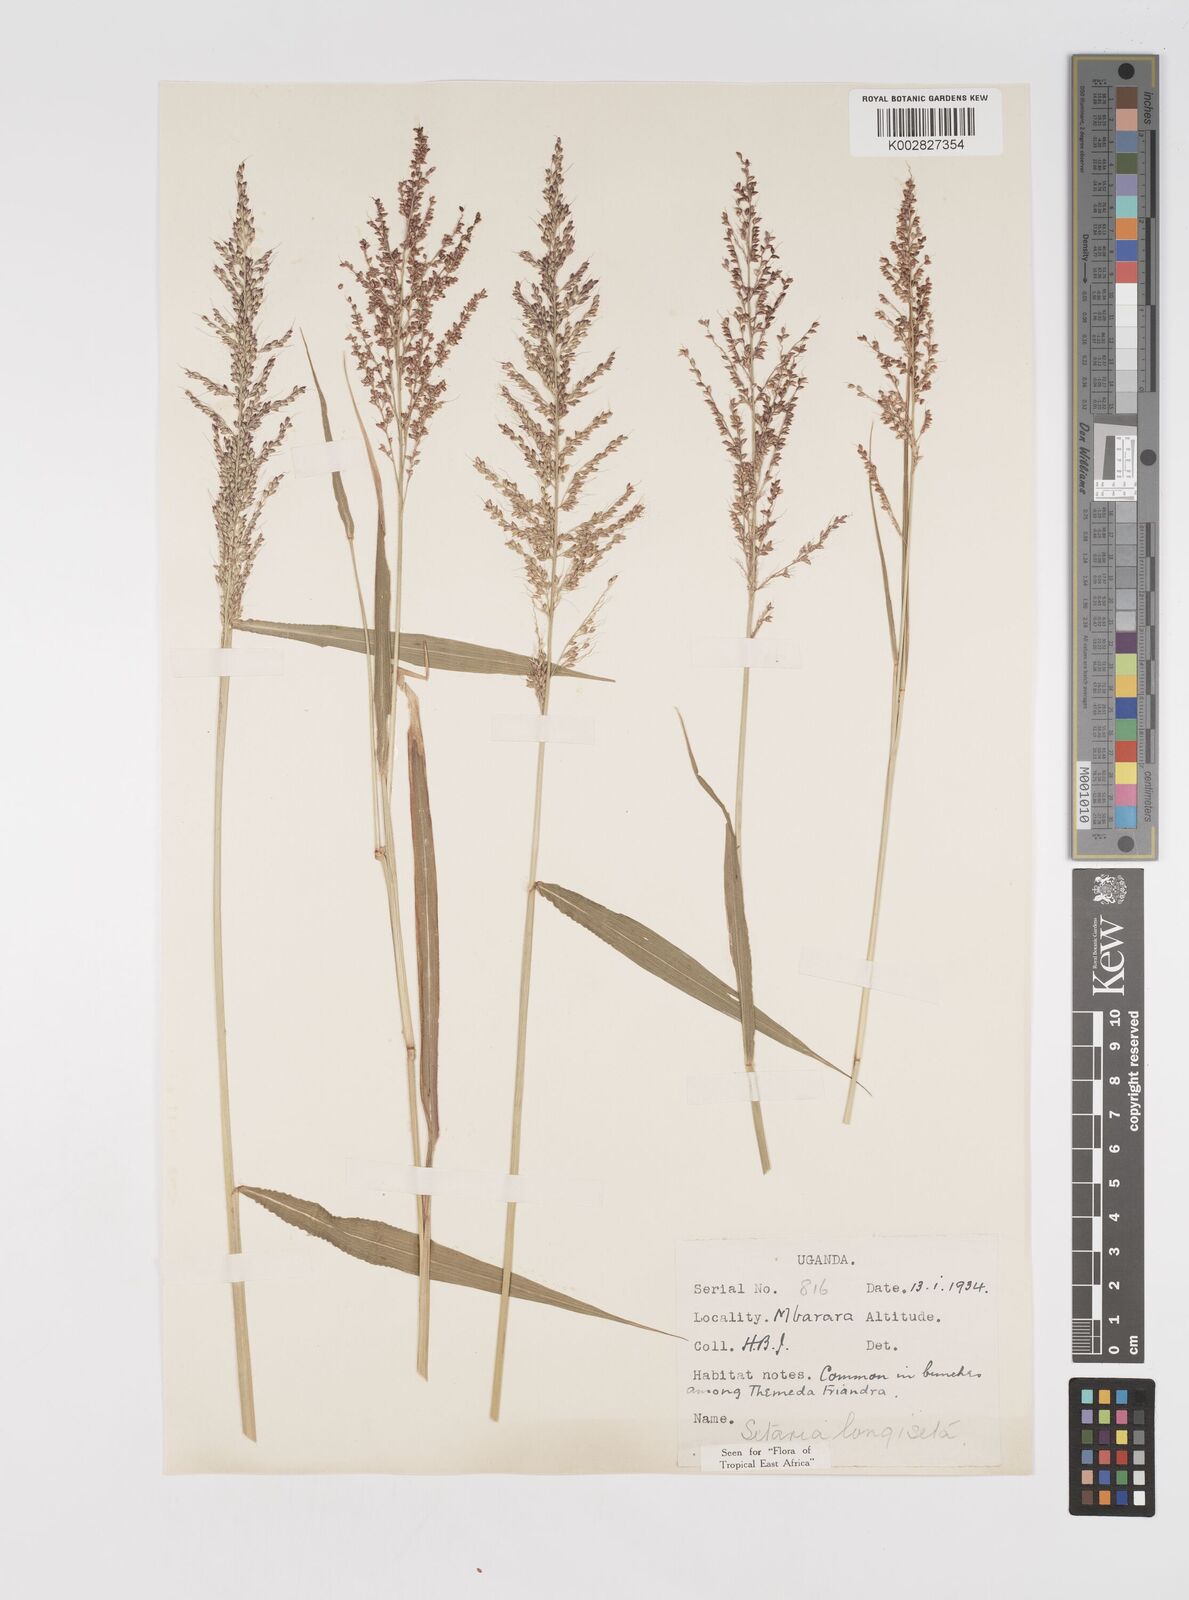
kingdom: Plantae
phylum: Tracheophyta
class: Liliopsida
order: Poales
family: Poaceae
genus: Setaria
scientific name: Setaria longiseta
